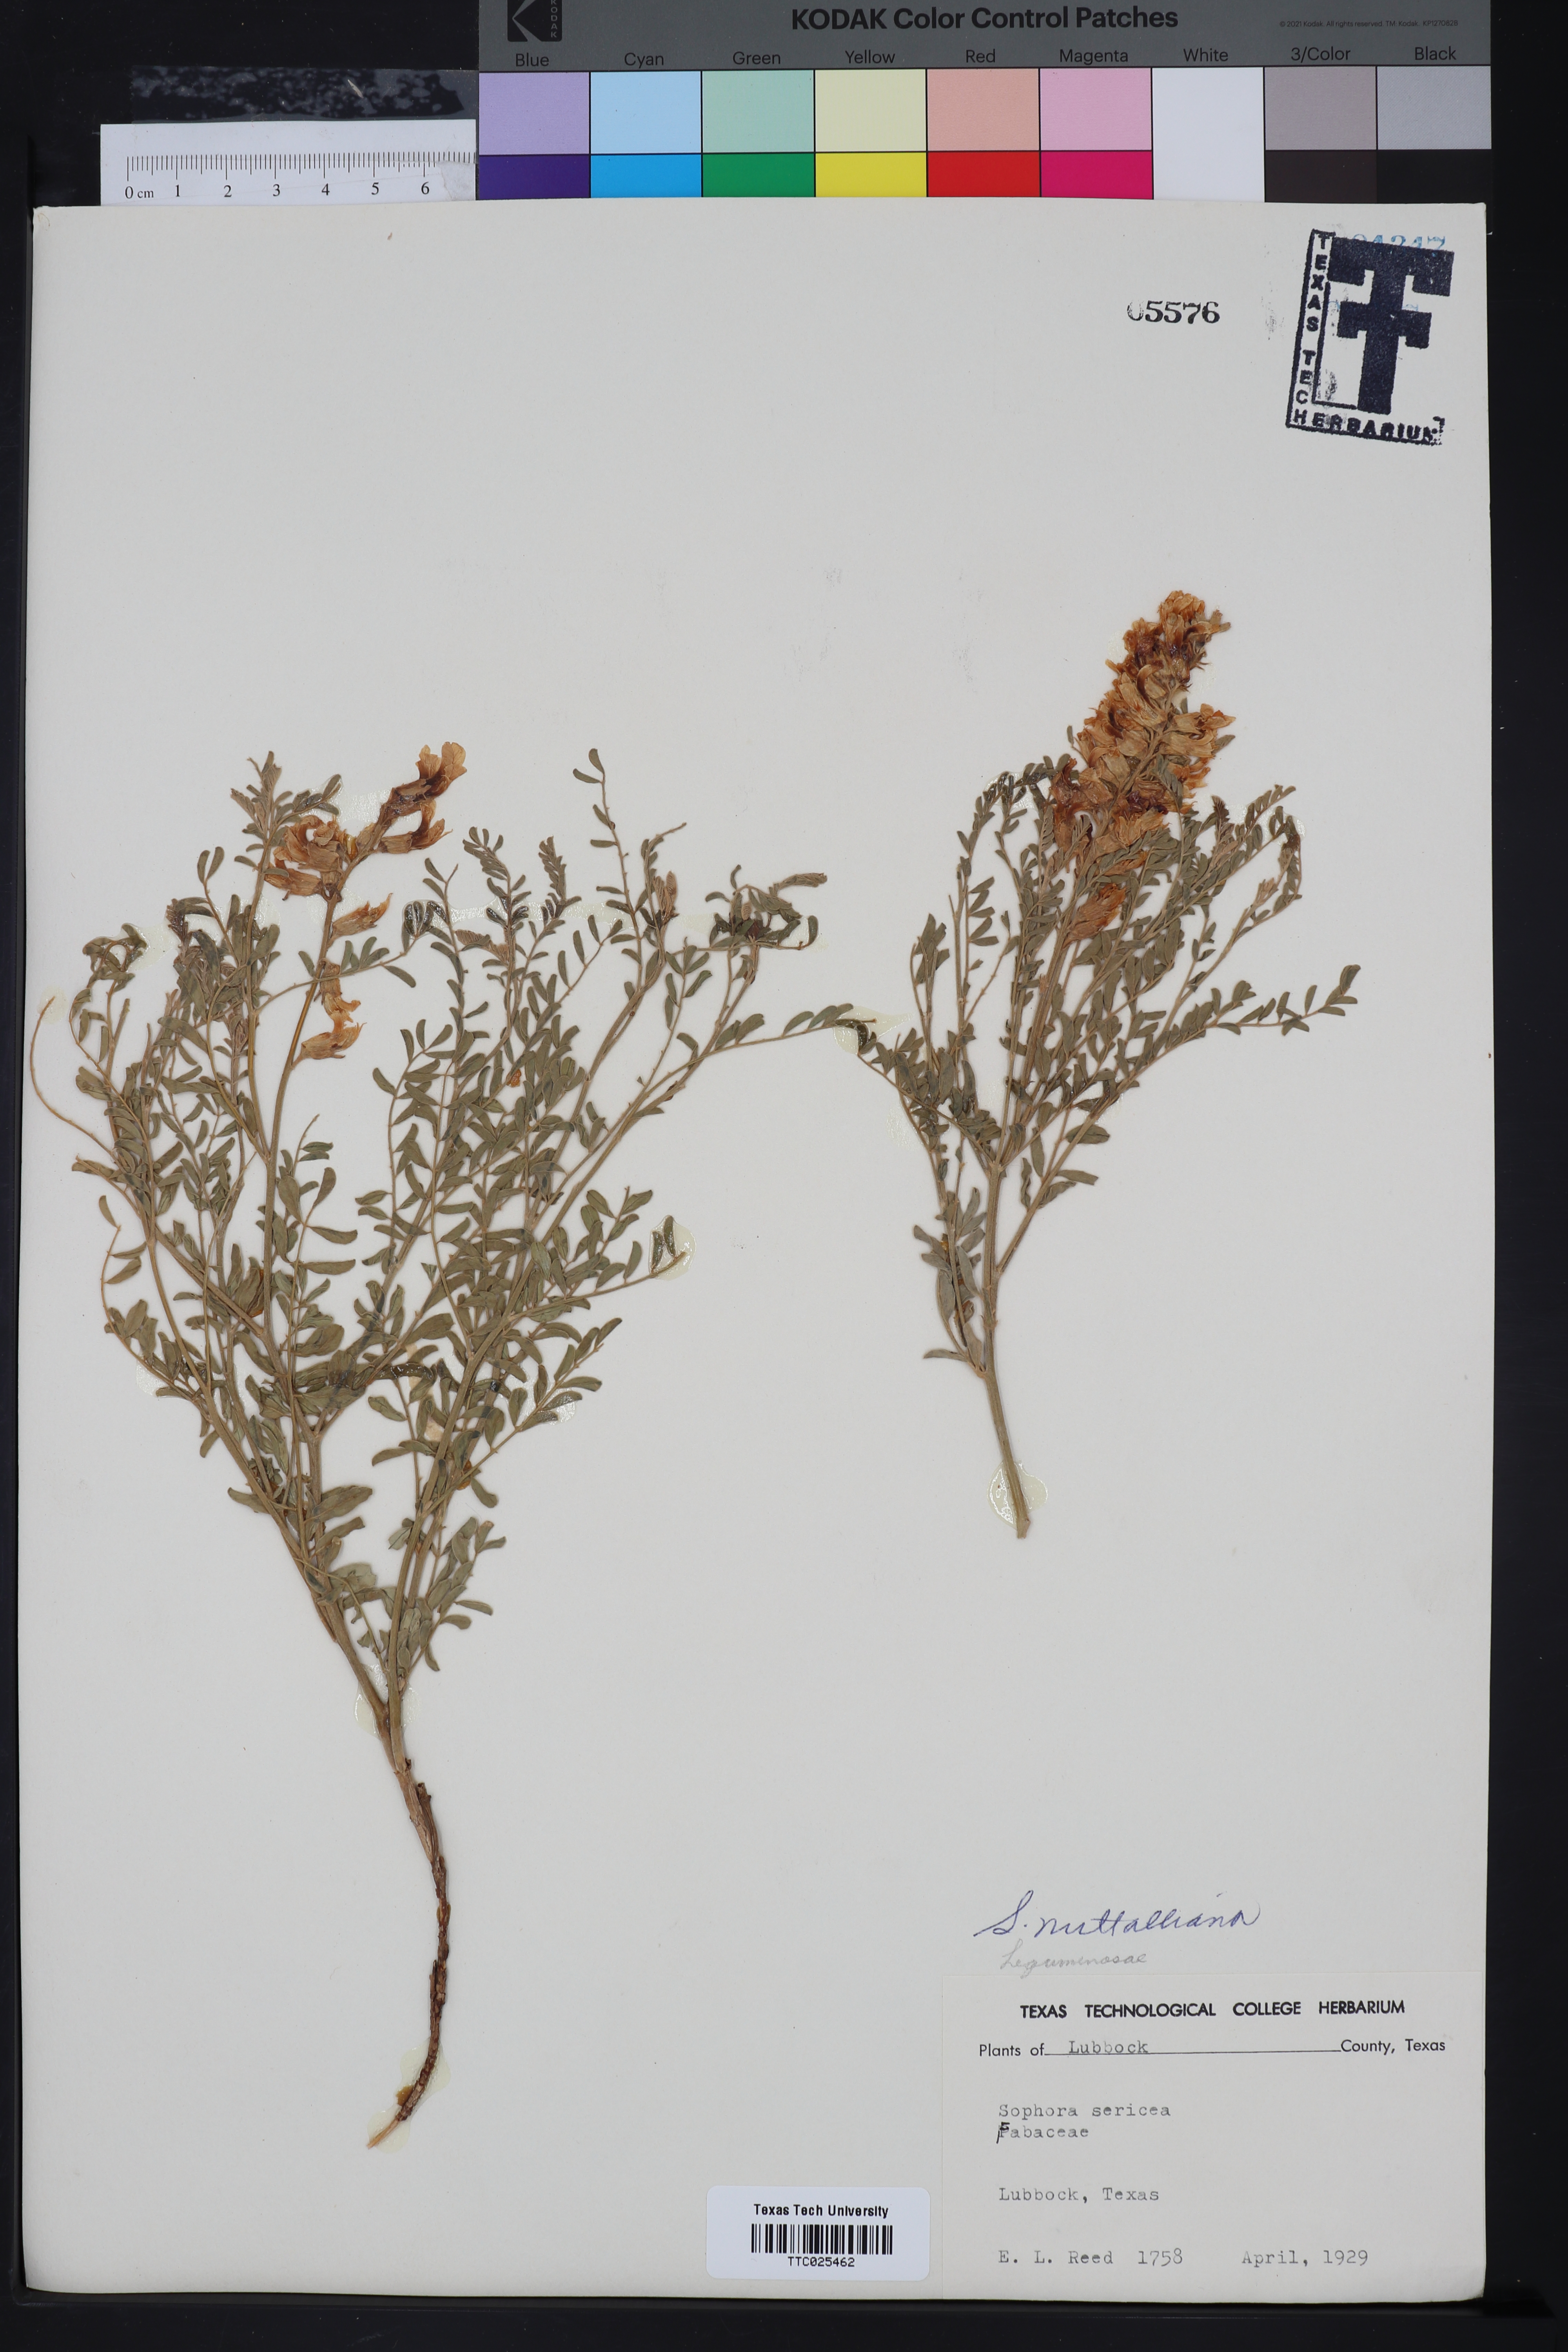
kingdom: Plantae
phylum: Tracheophyta
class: Magnoliopsida
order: Fabales
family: Fabaceae
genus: Sophora
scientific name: Sophora nuttalliana
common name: Silky sophora
